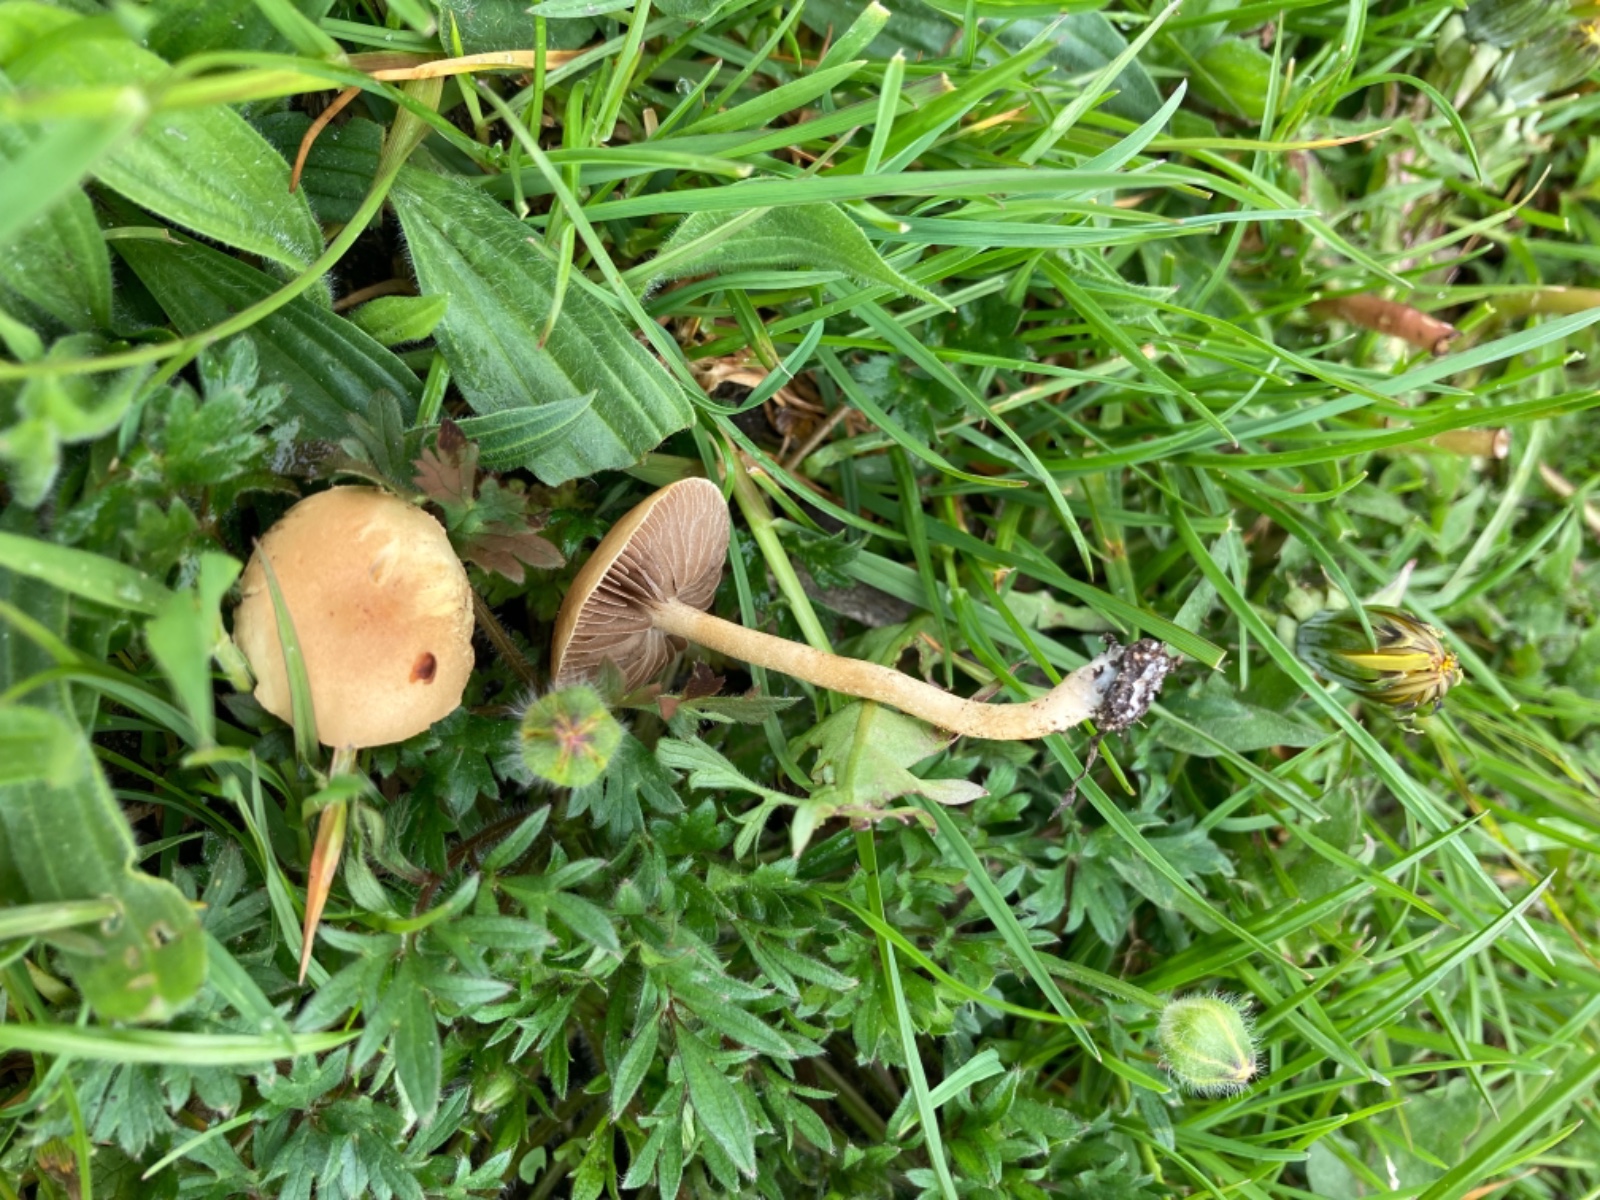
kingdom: Fungi
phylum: Basidiomycota
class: Agaricomycetes
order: Agaricales
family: Strophariaceae
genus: Agrocybe
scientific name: Agrocybe pediades
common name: almindelig agerhat
